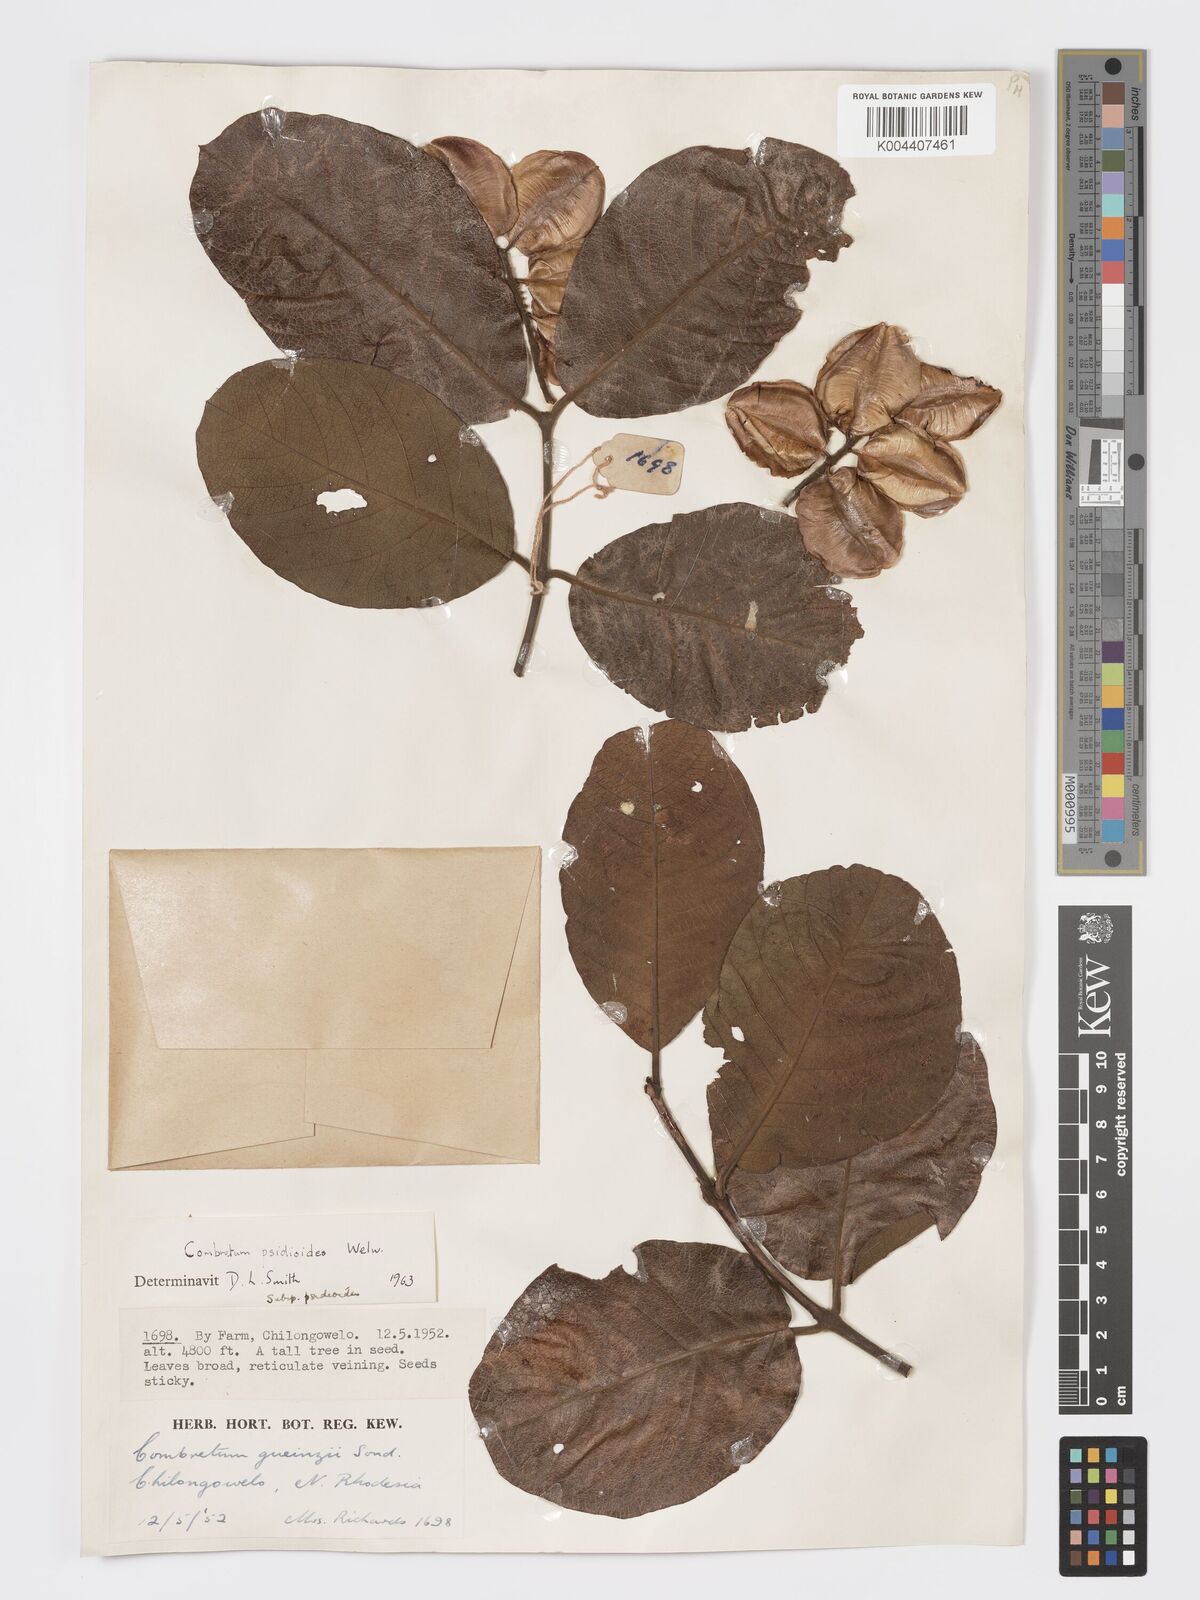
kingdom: Plantae
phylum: Tracheophyta
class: Magnoliopsida
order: Myrtales
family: Combretaceae
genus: Combretum
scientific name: Combretum psidioides
